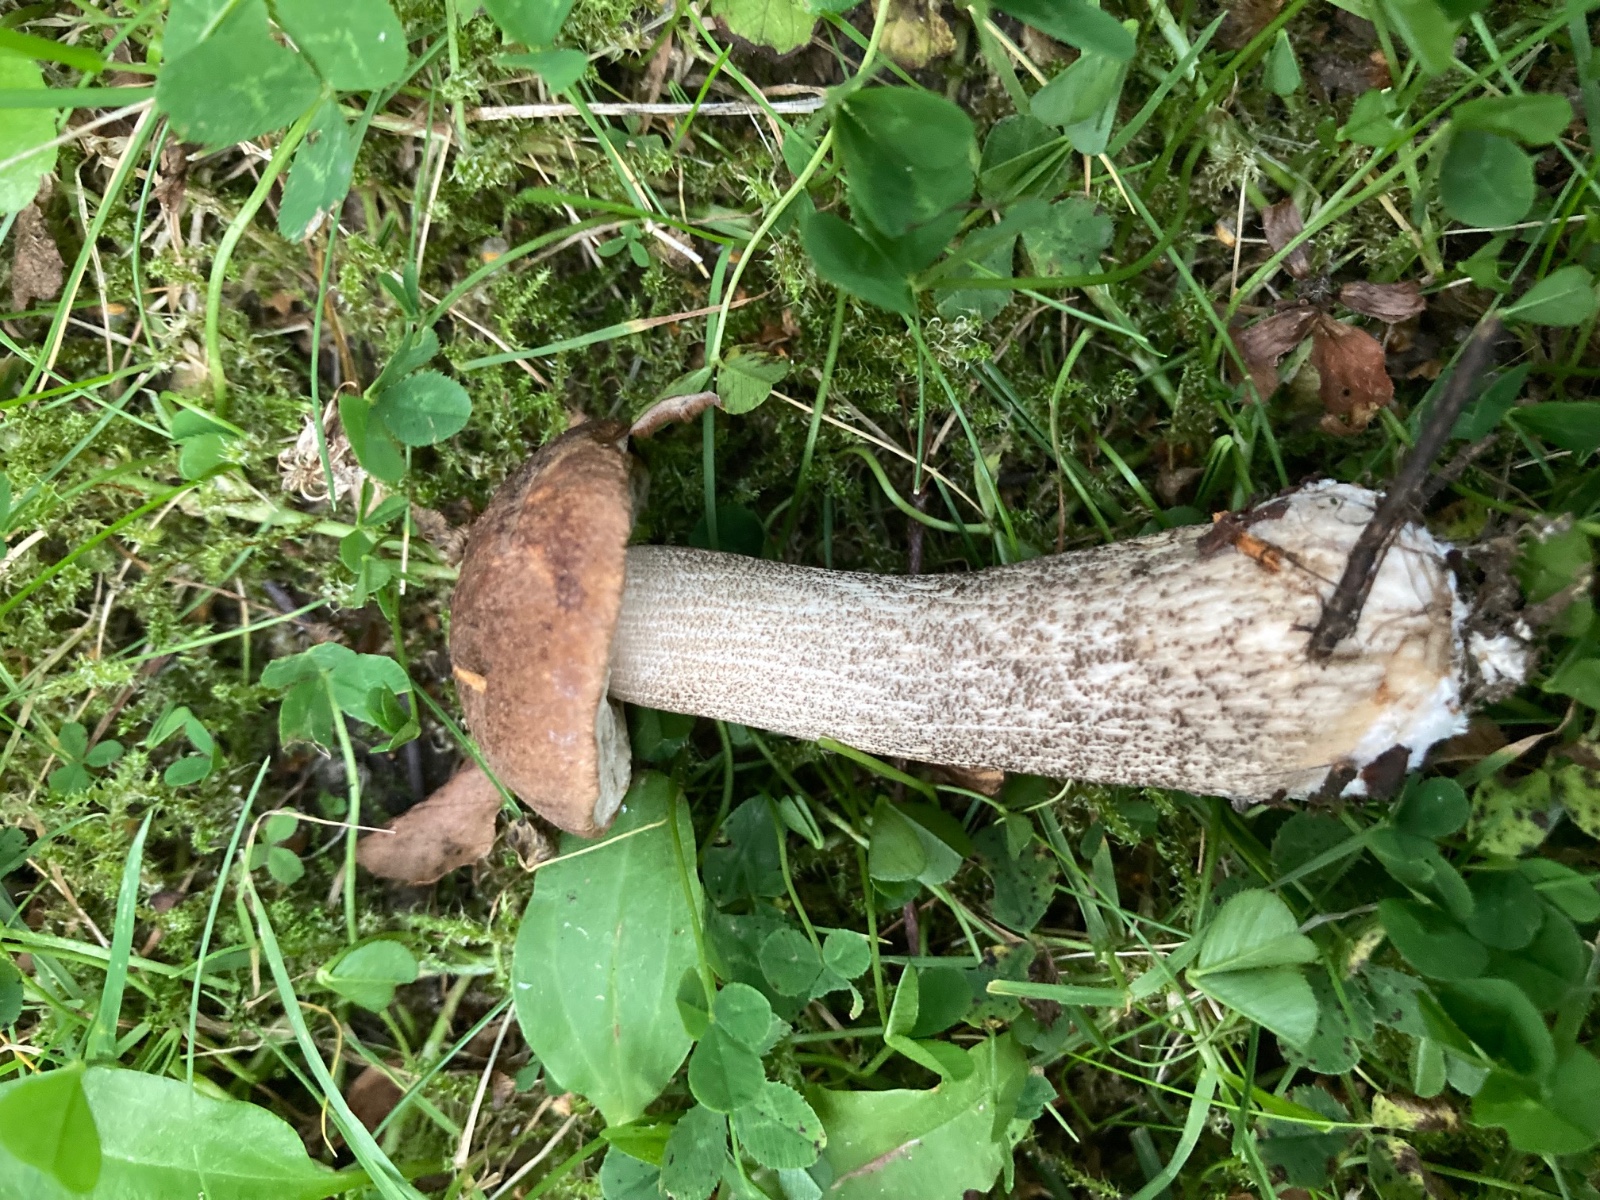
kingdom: Fungi
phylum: Basidiomycota
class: Agaricomycetes
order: Boletales
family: Boletaceae
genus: Leccinum
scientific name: Leccinum scabrum
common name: brun skælrørhat
